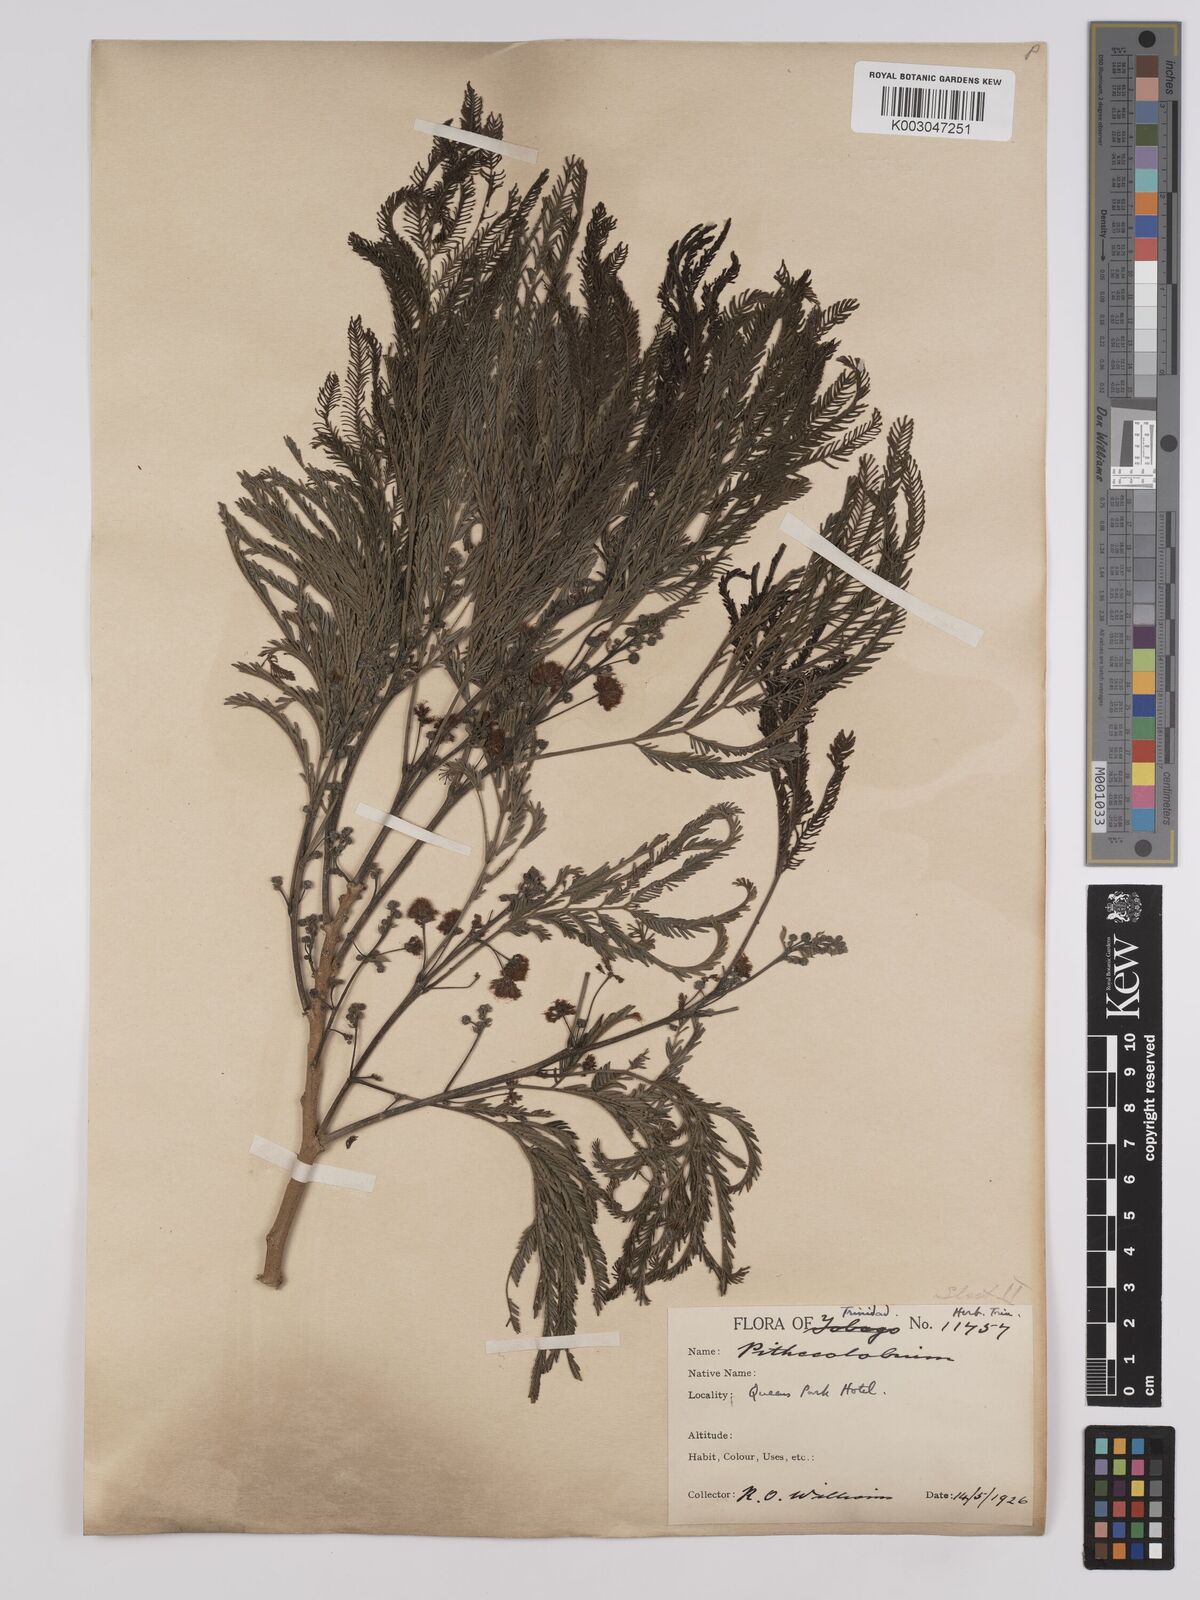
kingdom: Plantae
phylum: Tracheophyta
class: Magnoliopsida
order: Fabales
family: Fabaceae
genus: Albizia
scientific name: Albizia niopoides
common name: Silk tree
